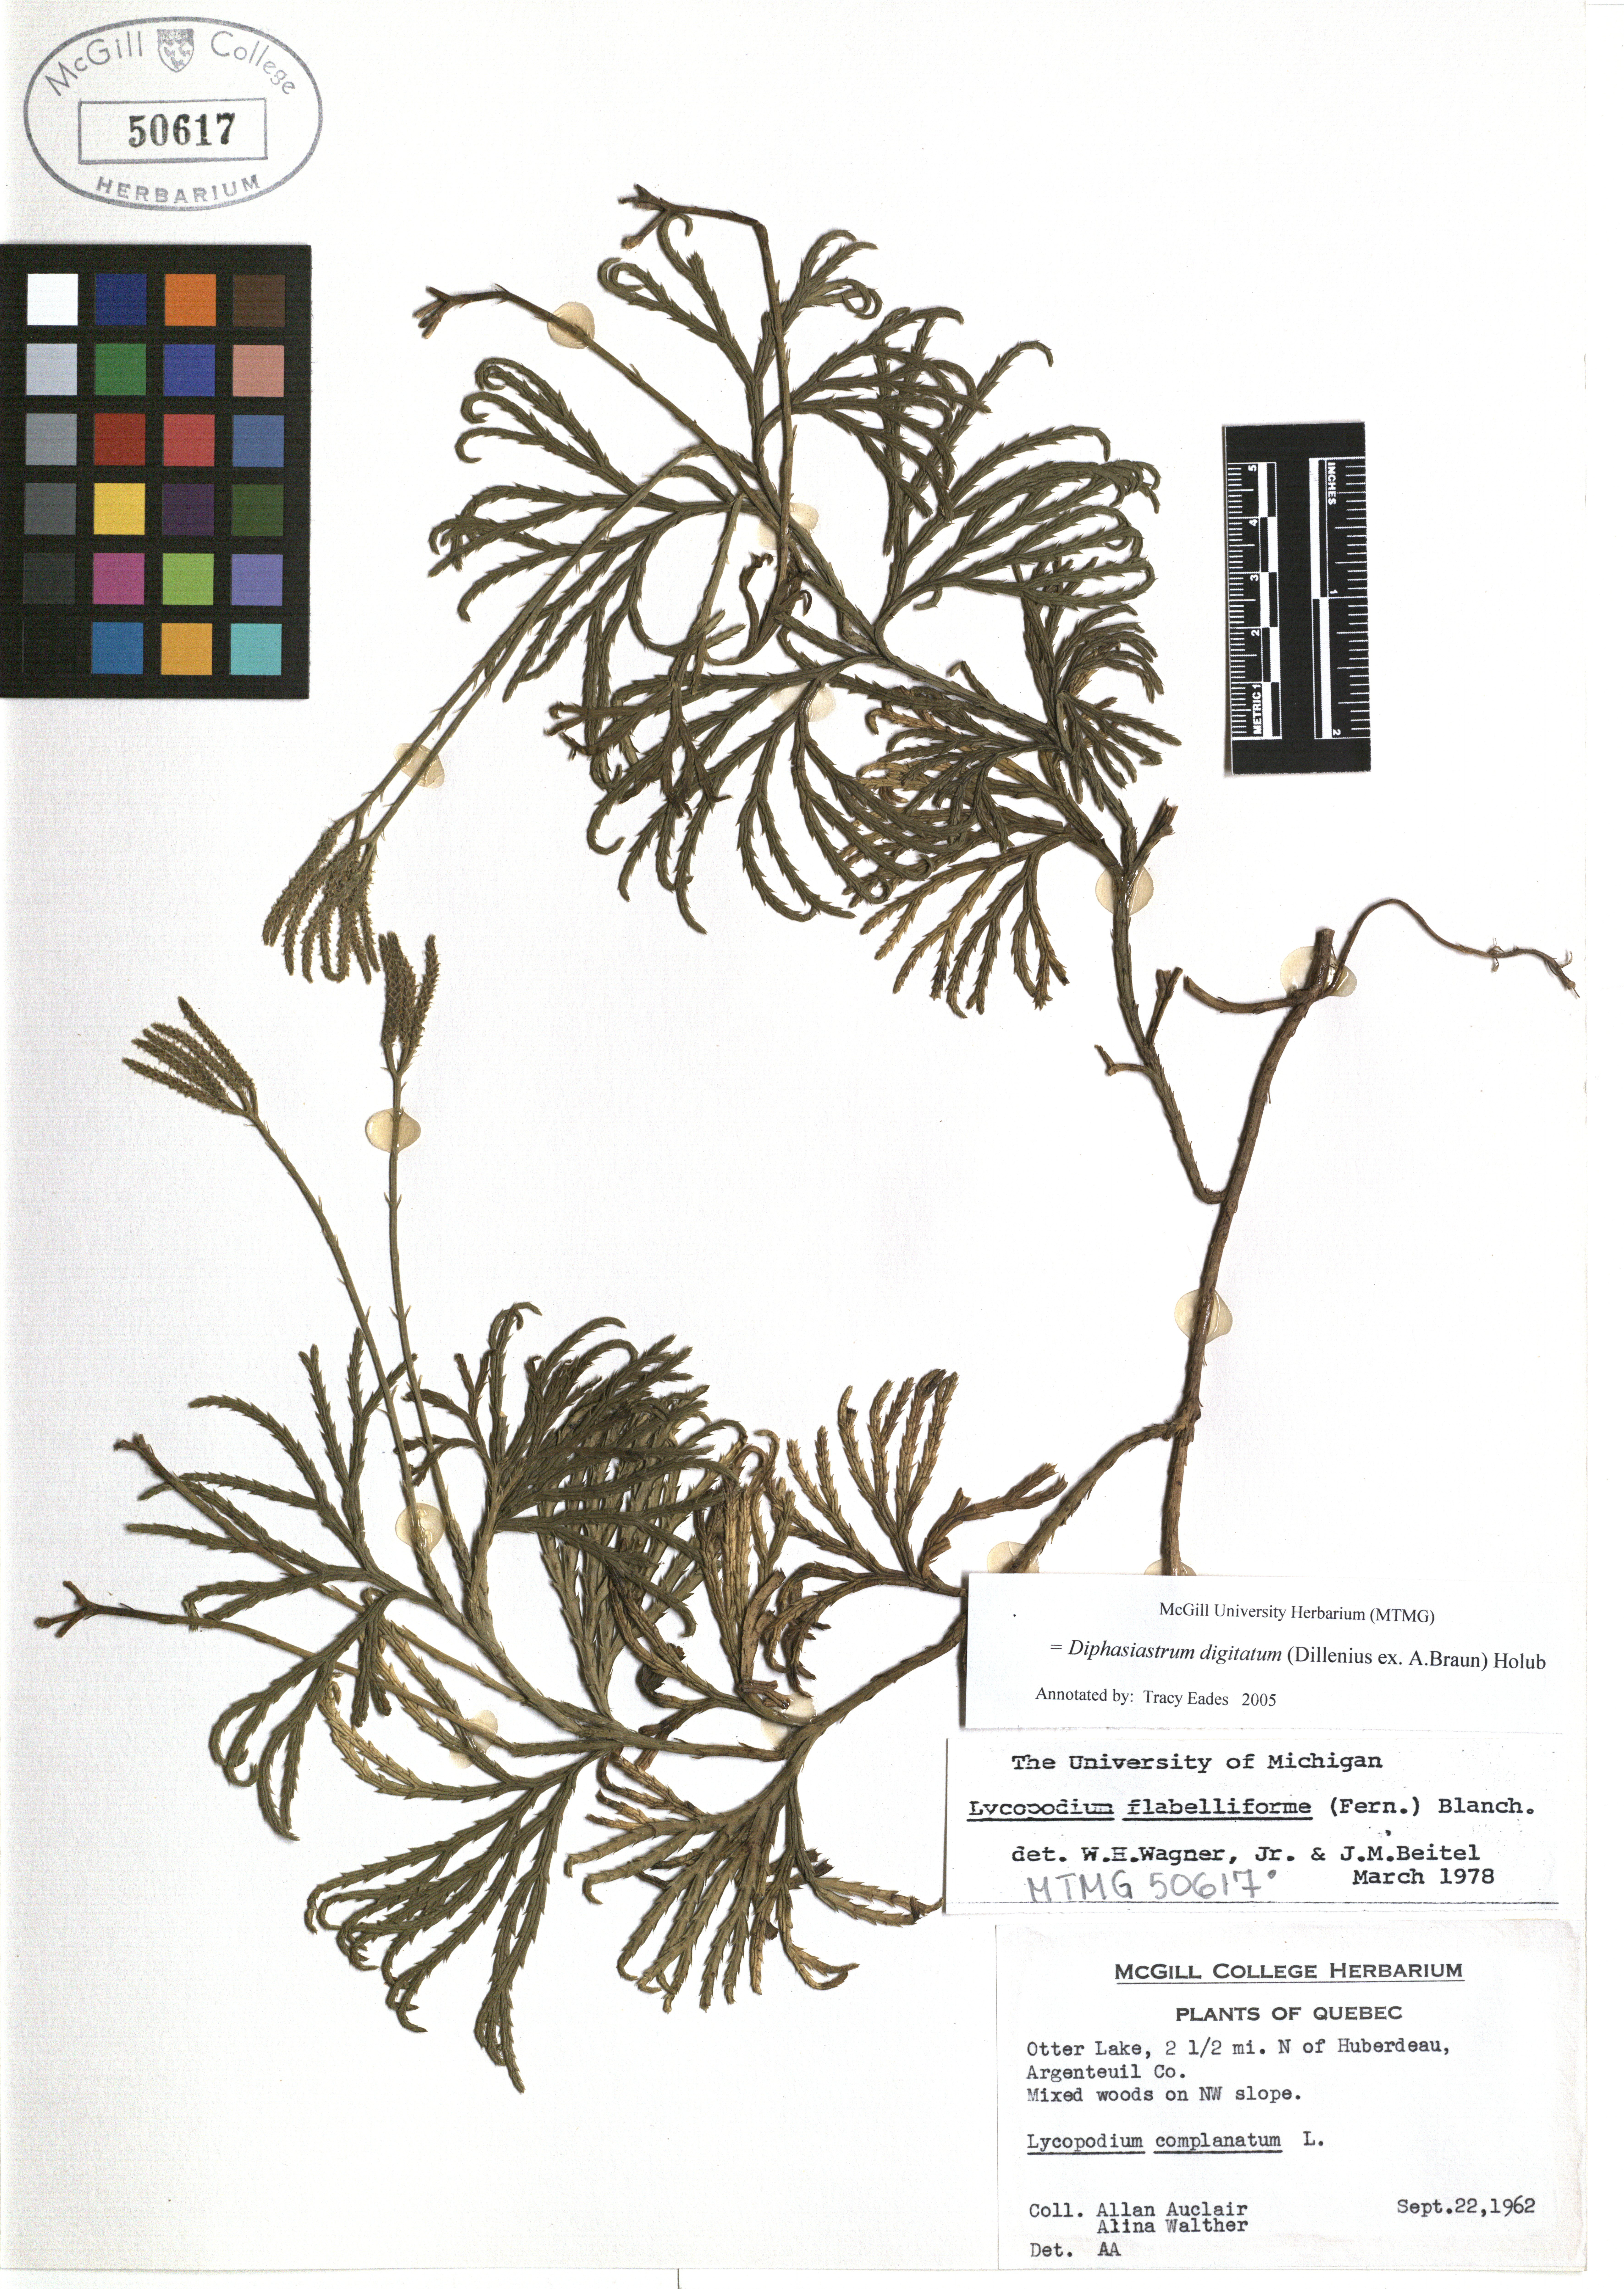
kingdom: Plantae
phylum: Tracheophyta
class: Lycopodiopsida
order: Lycopodiales
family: Lycopodiaceae
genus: Diphasiastrum
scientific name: Diphasiastrum digitatum
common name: Southern running-pine
